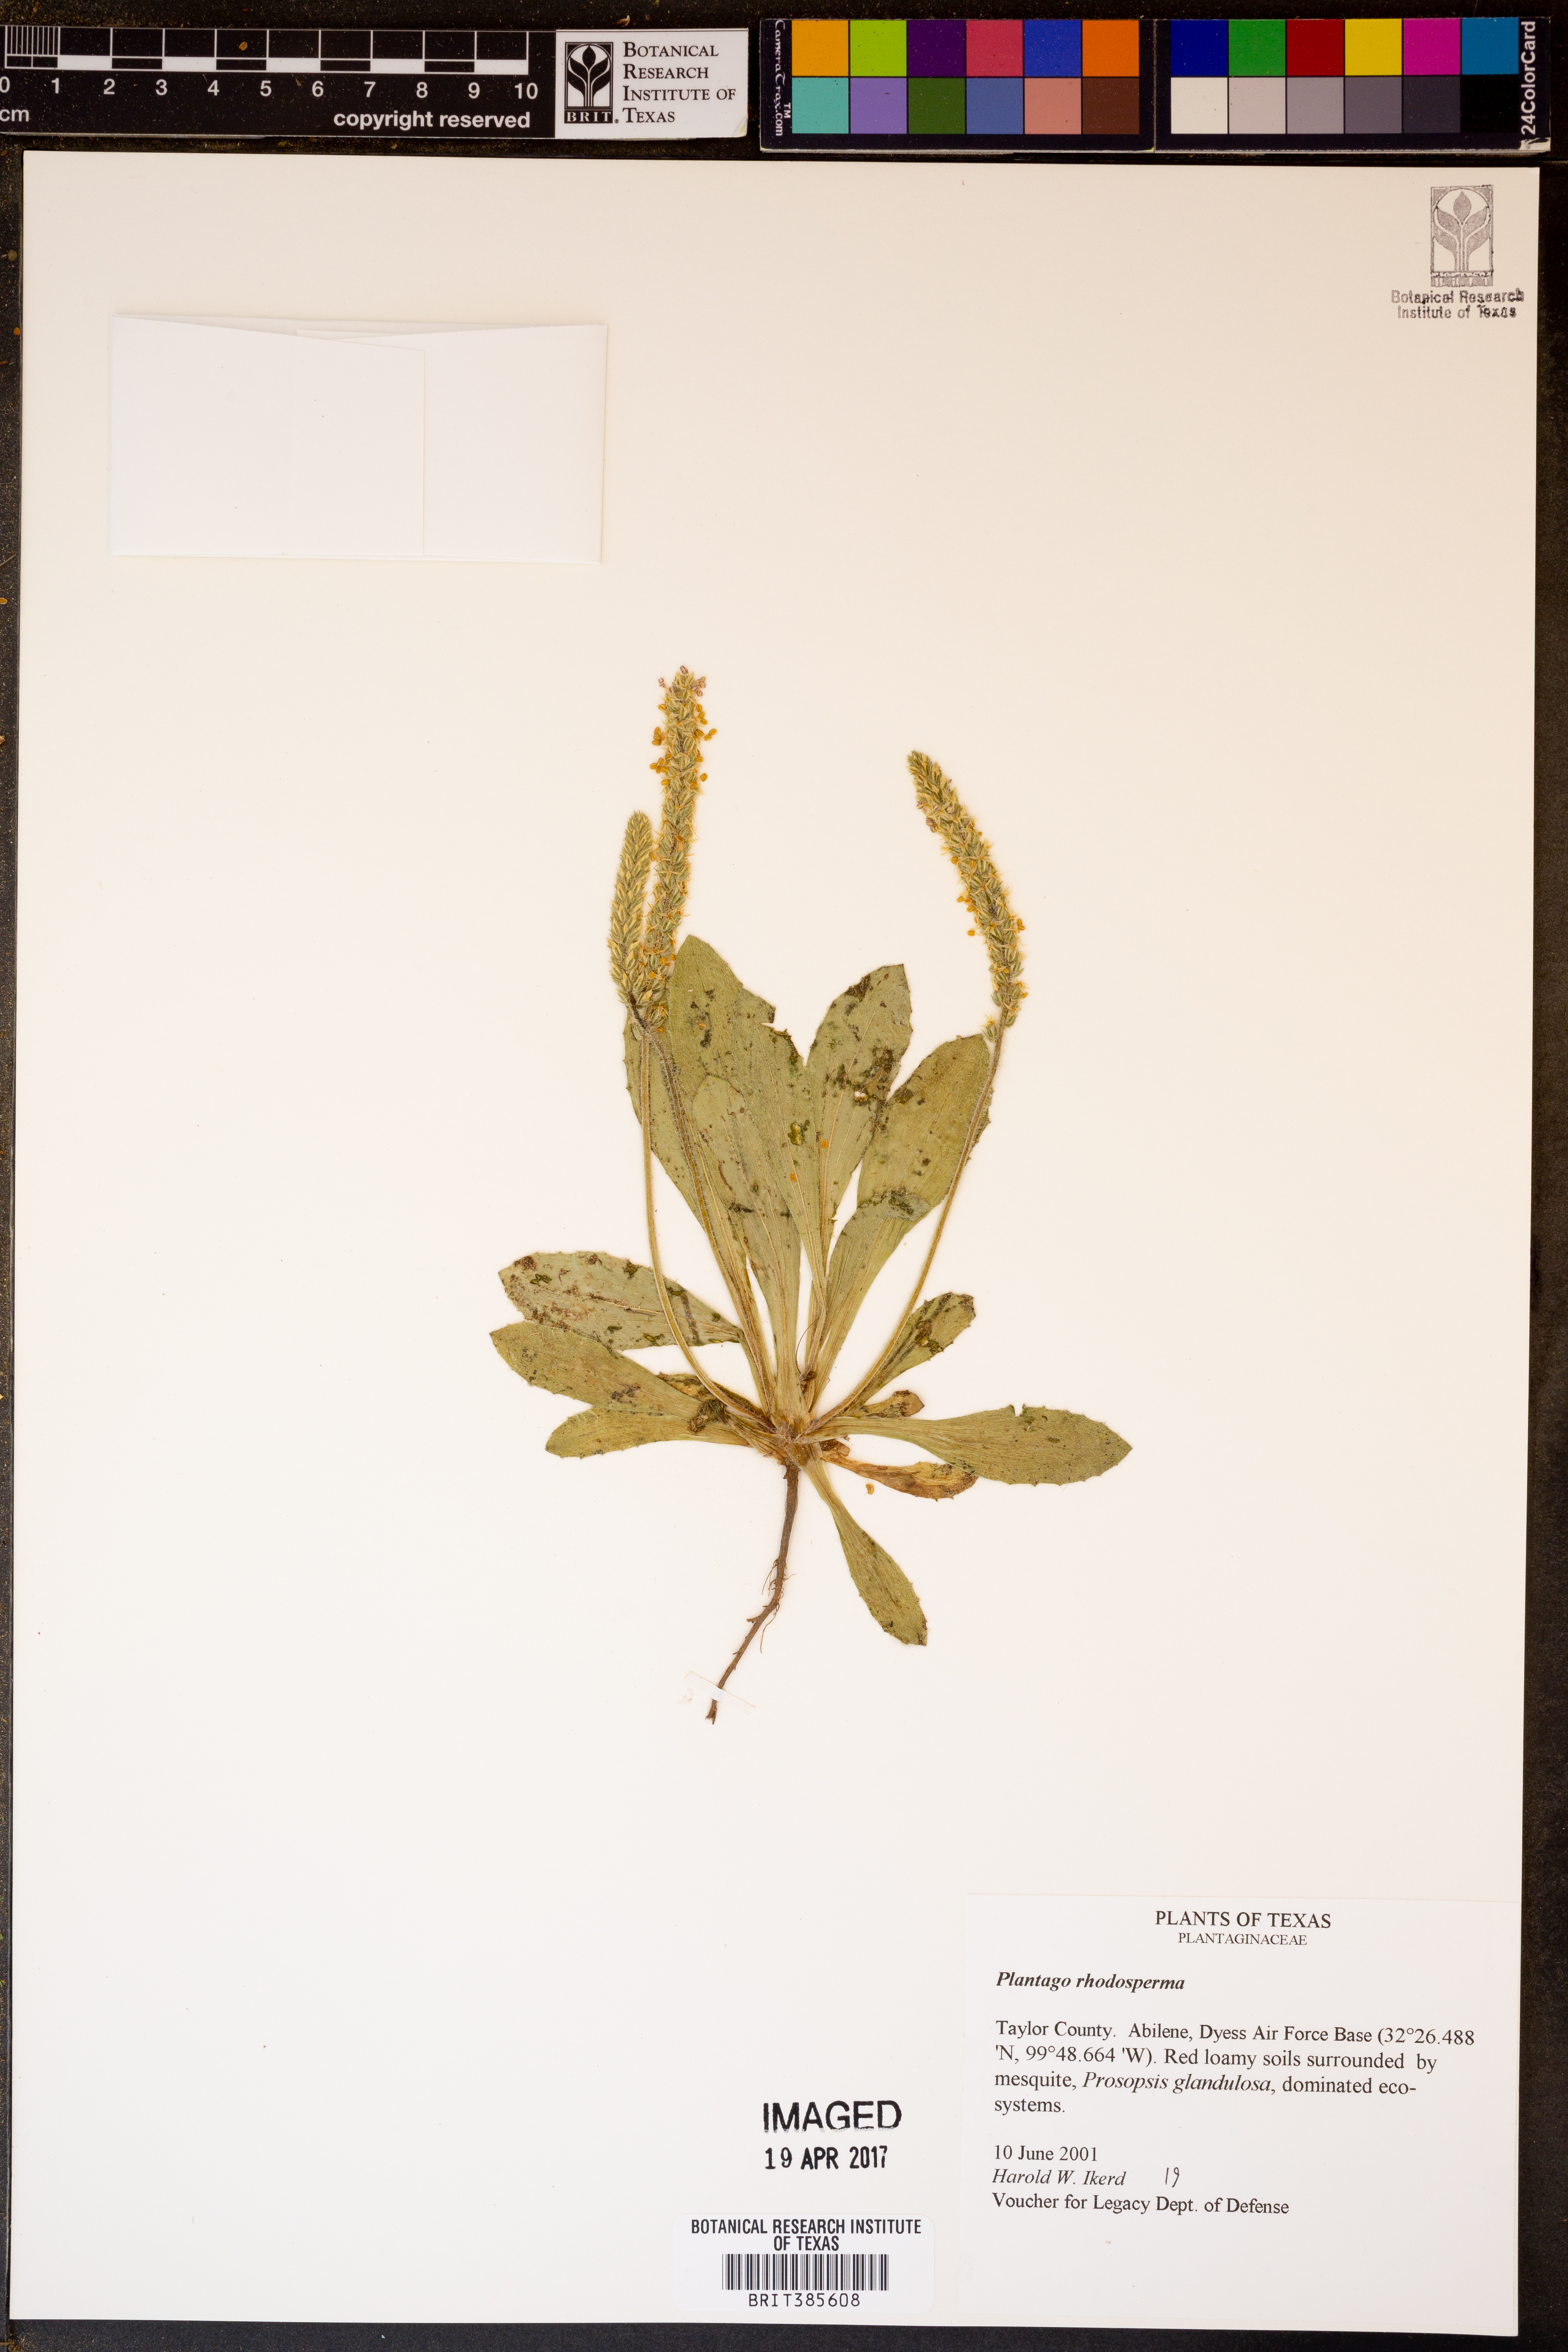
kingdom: Plantae
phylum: Tracheophyta
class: Magnoliopsida
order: Lamiales
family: Plantaginaceae
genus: Plantago
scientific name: Plantago rhodosperma
